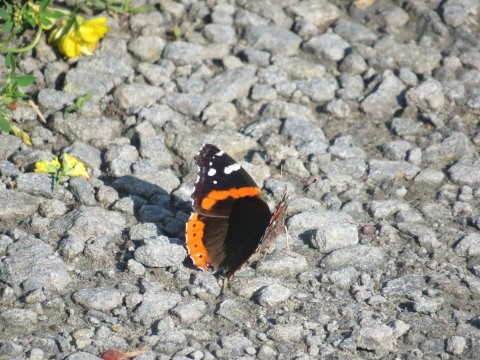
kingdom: Animalia
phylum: Arthropoda
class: Insecta
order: Lepidoptera
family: Nymphalidae
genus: Vanessa
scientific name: Vanessa atalanta
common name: Red Admiral
